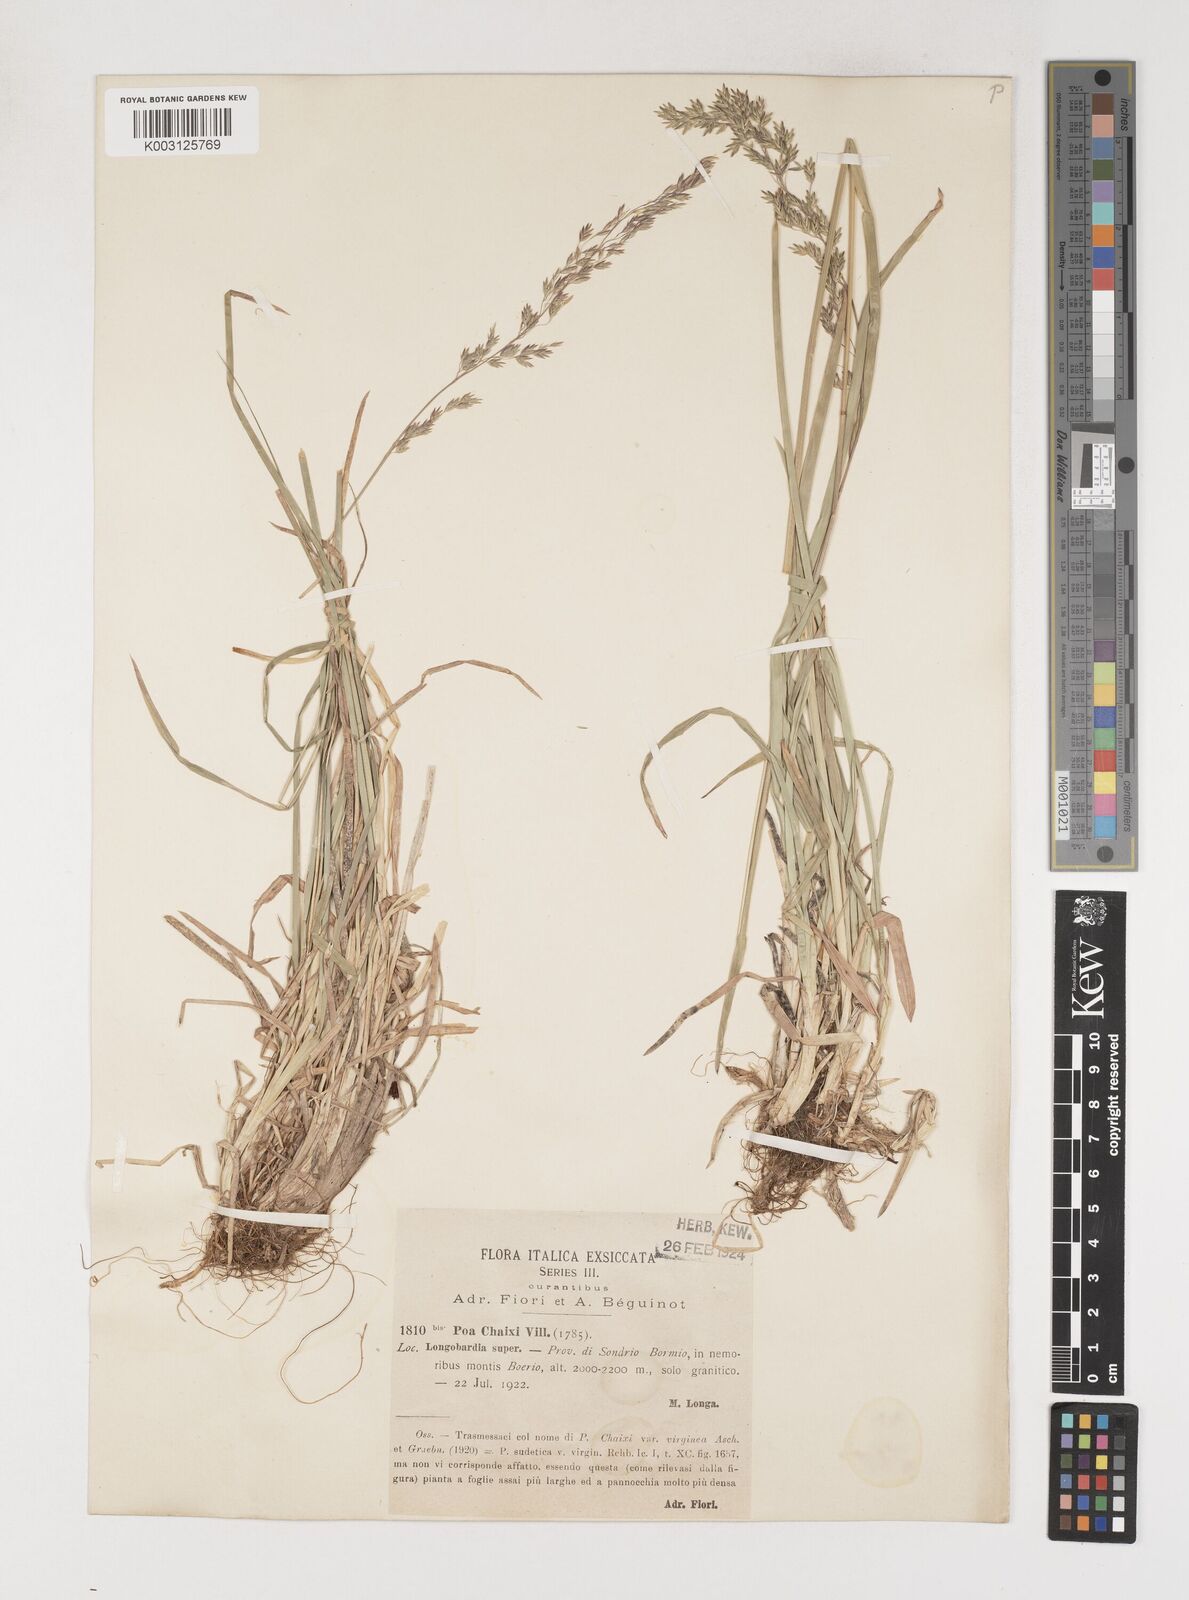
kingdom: Plantae
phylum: Tracheophyta
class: Liliopsida
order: Poales
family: Poaceae
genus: Poa
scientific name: Poa chaixii
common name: Broad-leaved meadow-grass
